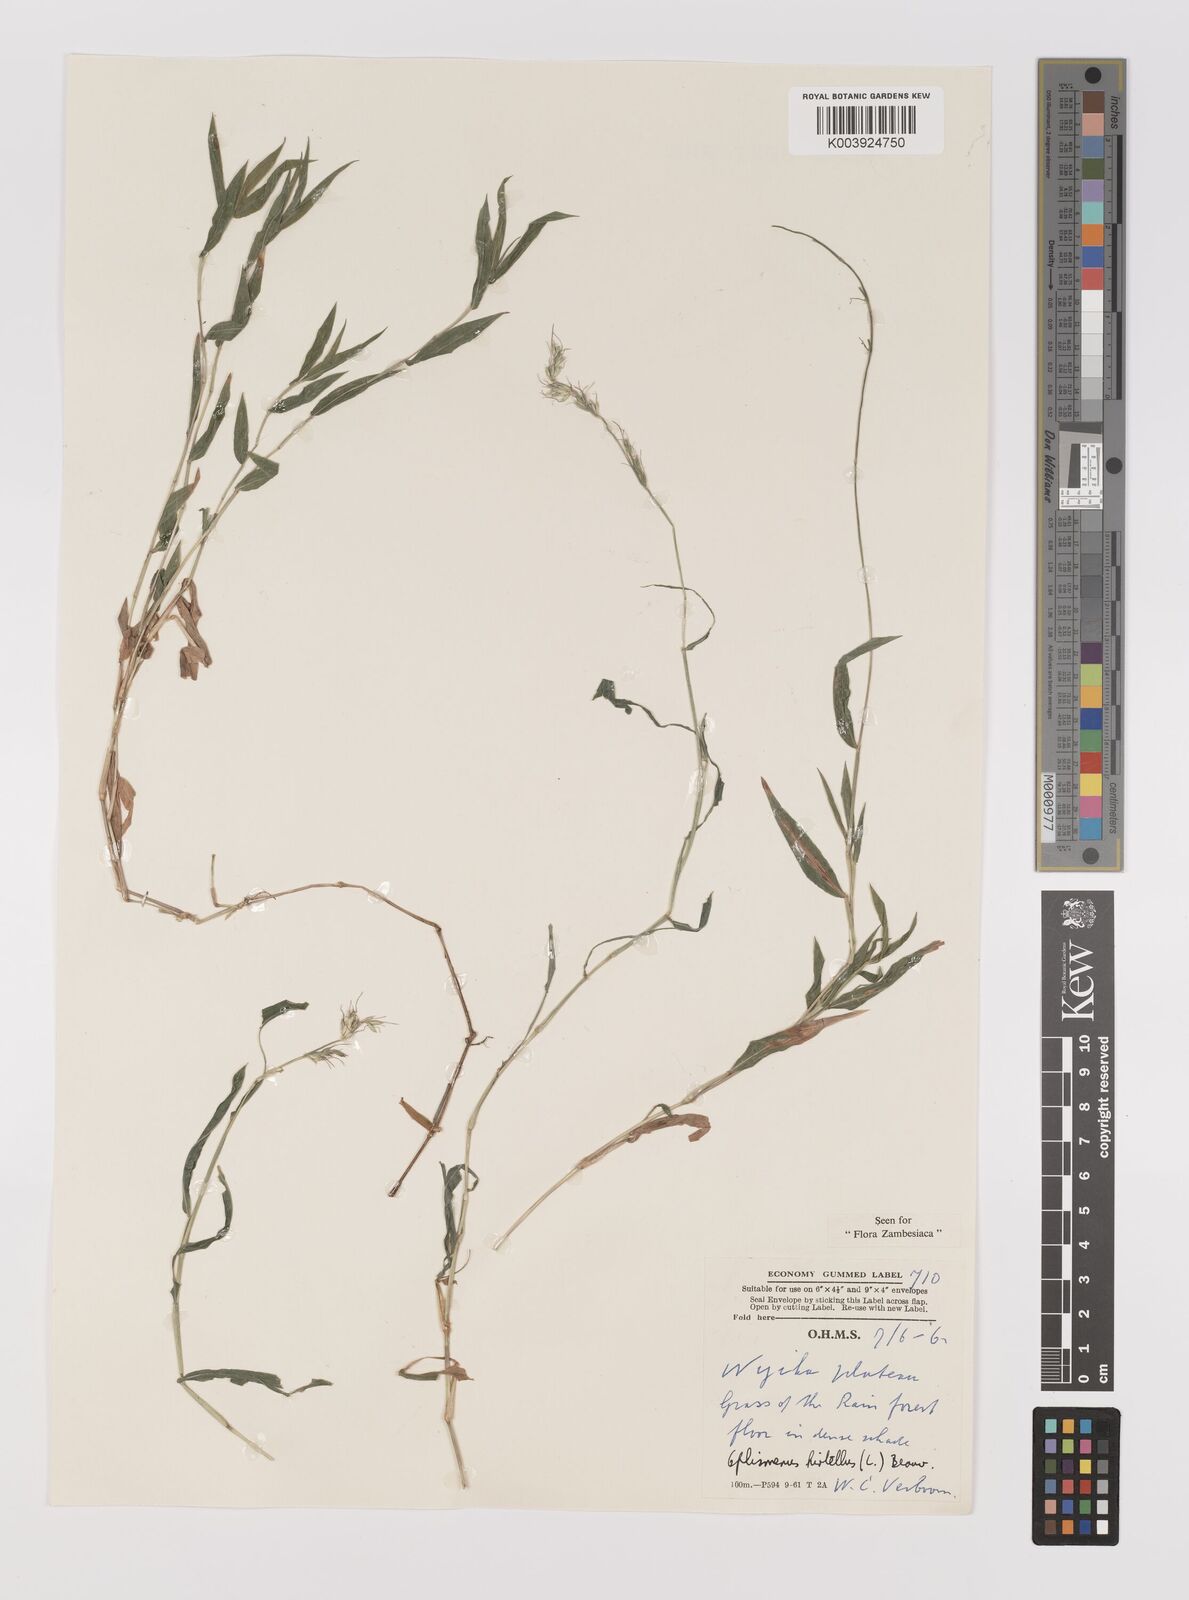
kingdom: Plantae
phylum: Tracheophyta
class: Liliopsida
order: Poales
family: Poaceae
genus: Oplismenus
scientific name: Oplismenus hirtellus
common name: Basketgrass
